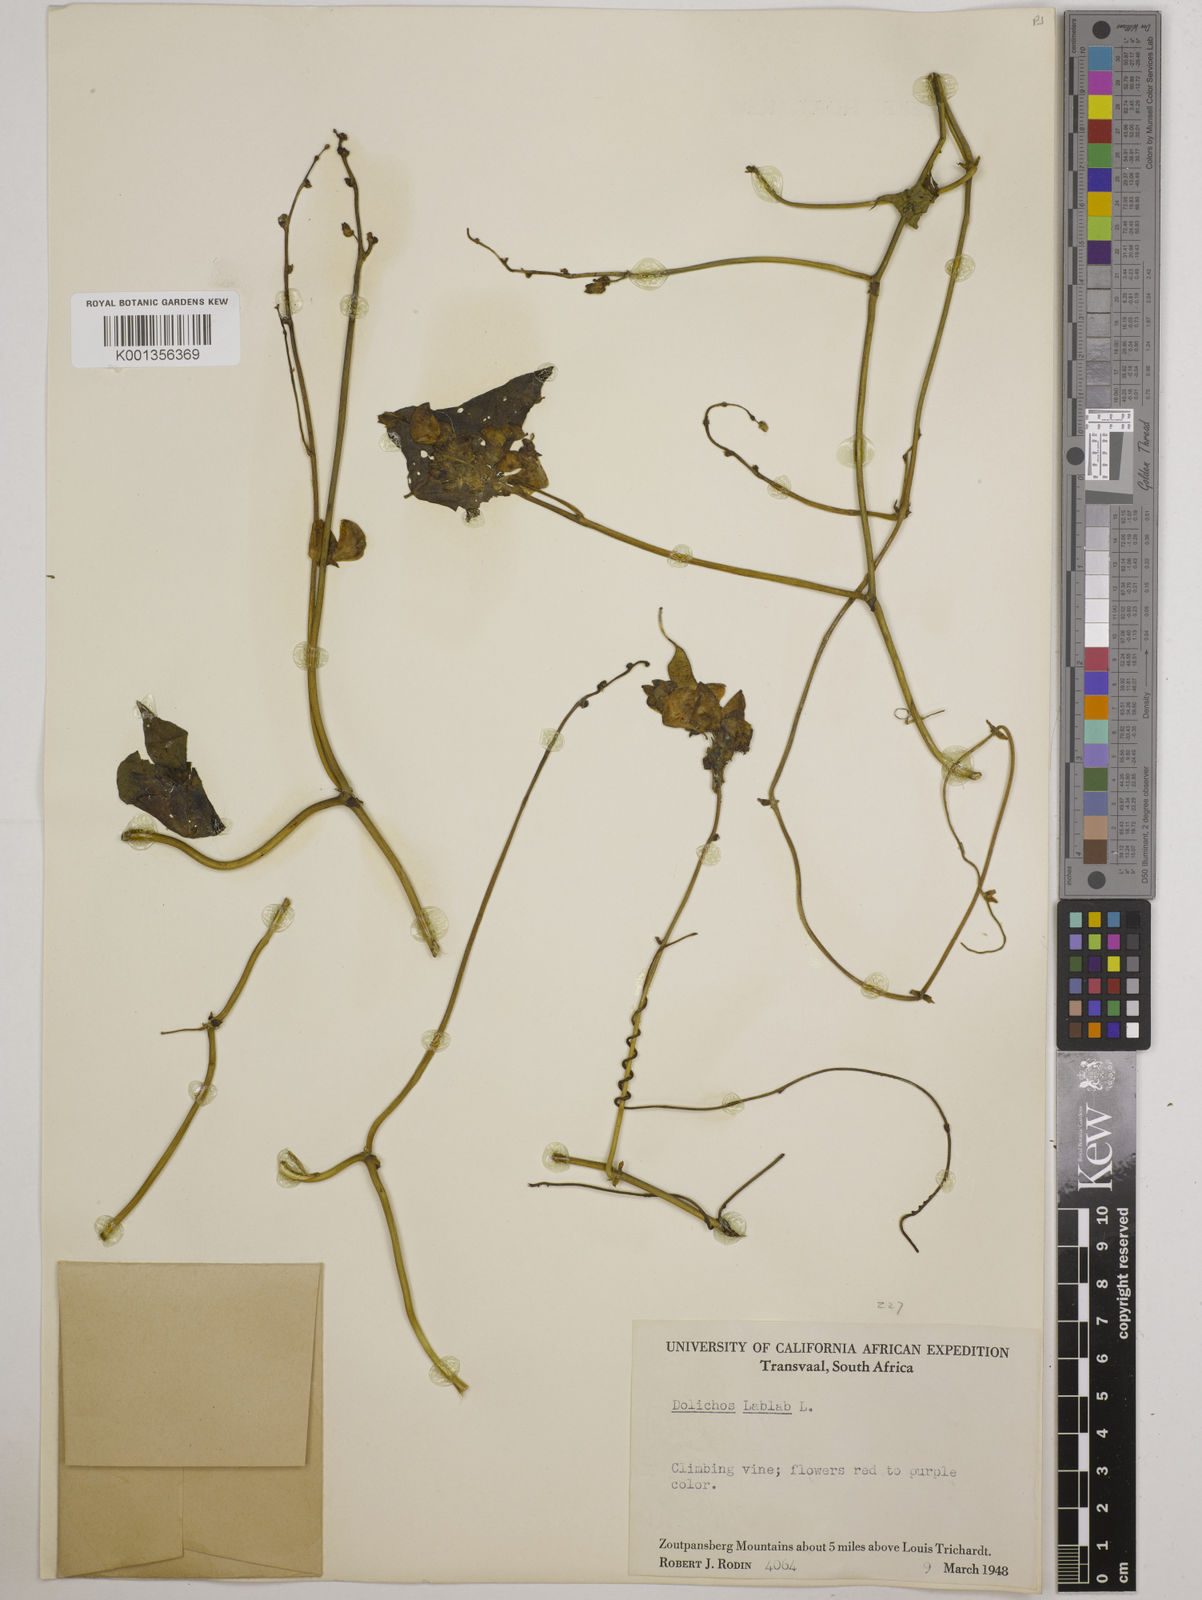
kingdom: Plantae
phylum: Tracheophyta
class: Magnoliopsida
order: Fabales
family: Fabaceae
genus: Lablab
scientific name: Lablab purpureus
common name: Lablab-bean
